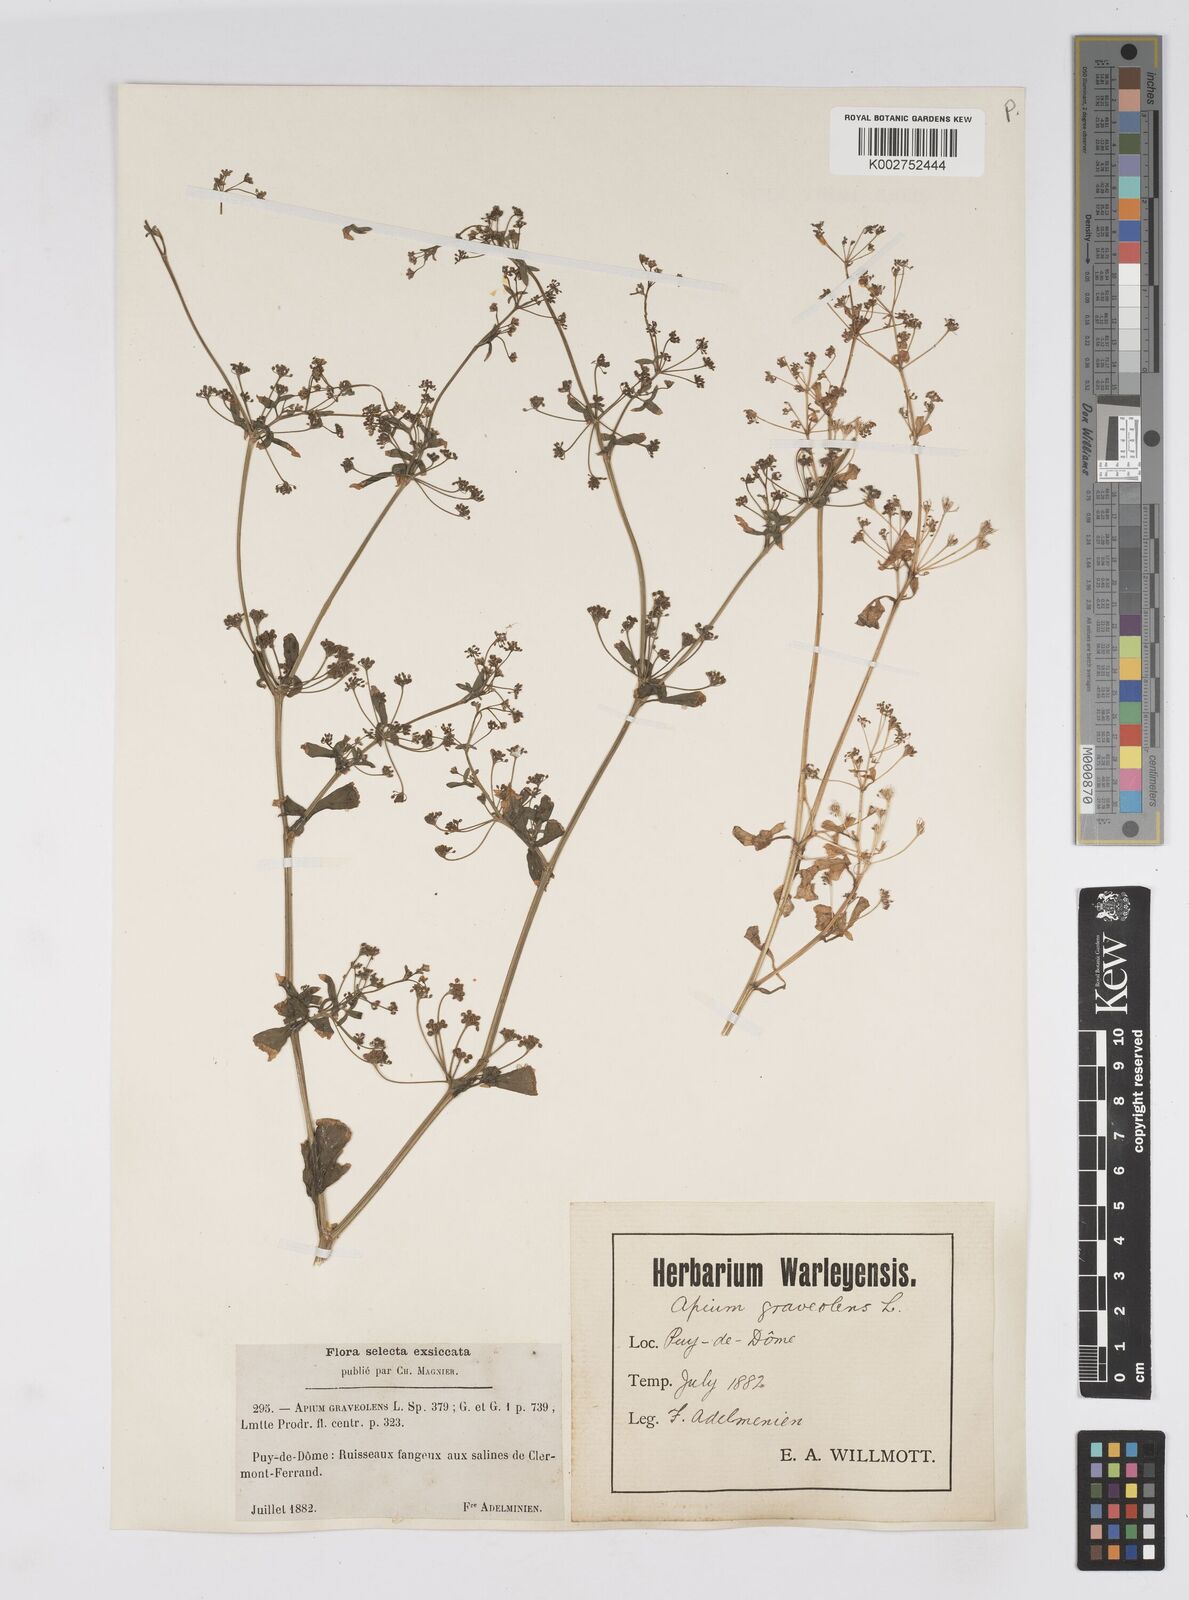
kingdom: Plantae
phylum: Tracheophyta
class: Magnoliopsida
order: Apiales
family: Apiaceae
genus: Apium
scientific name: Apium graveolens
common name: Wild celery
